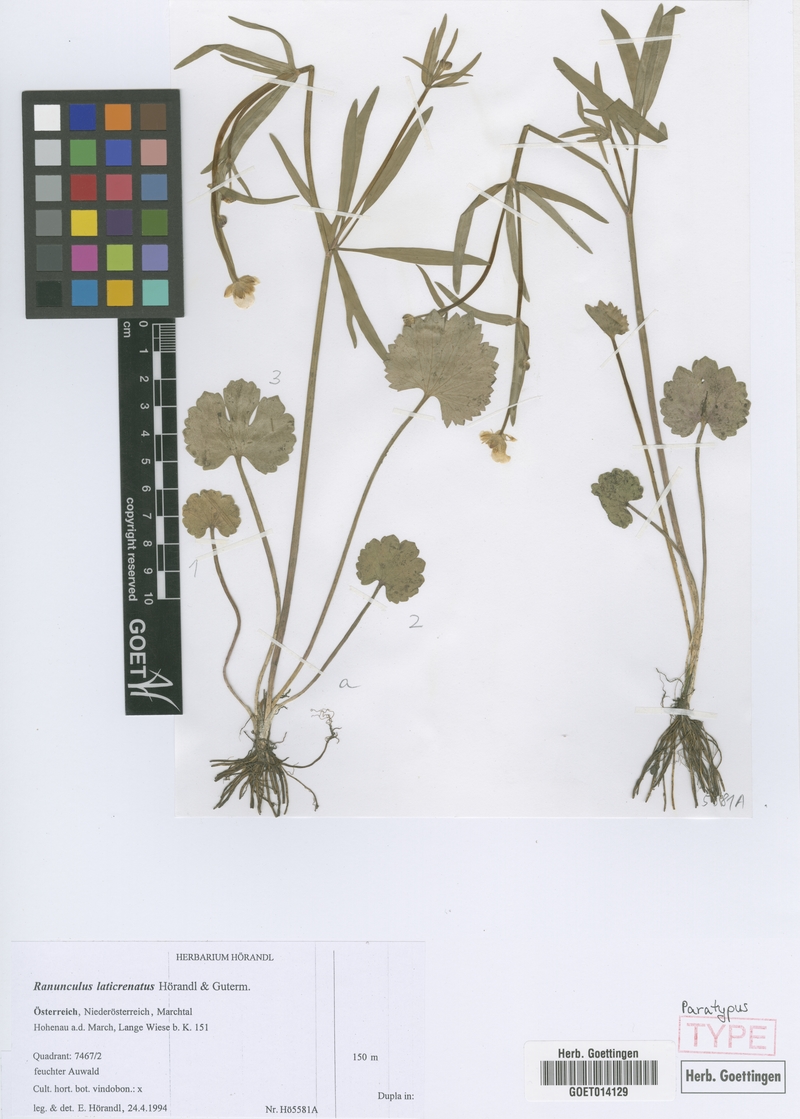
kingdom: Plantae
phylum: Tracheophyta
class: Magnoliopsida
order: Ranunculales
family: Ranunculaceae
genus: Ranunculus
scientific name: Ranunculus laticrenatus
